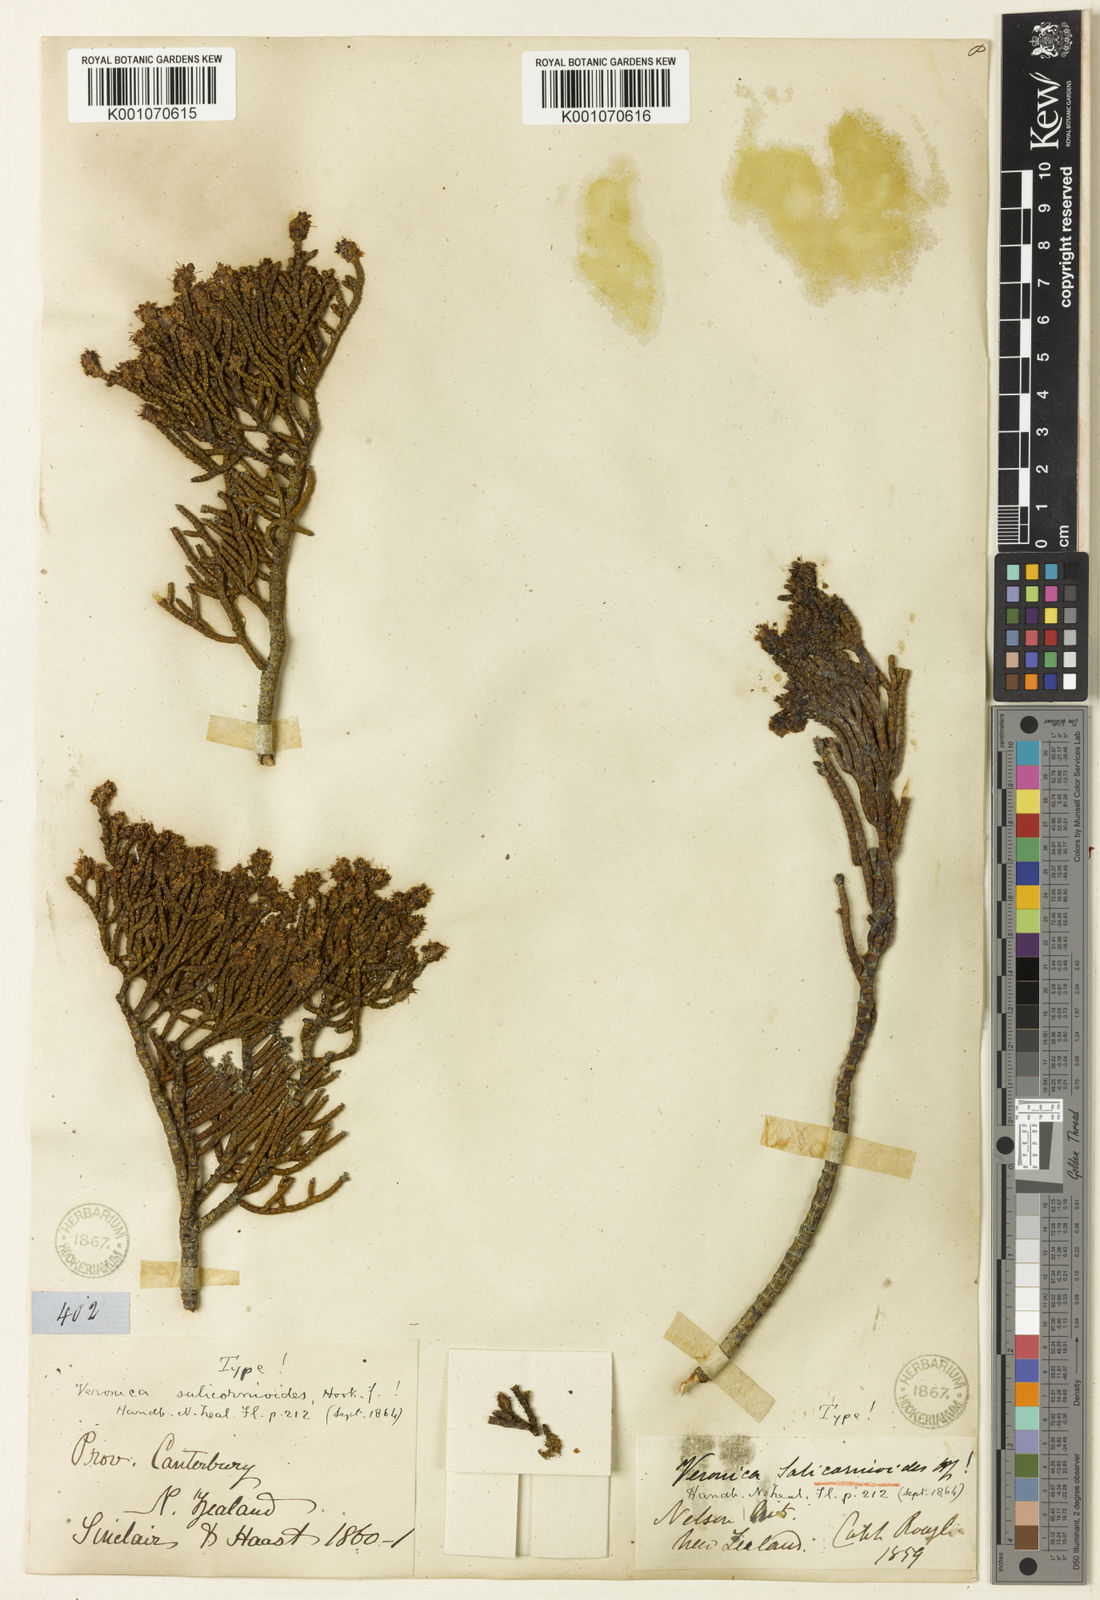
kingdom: Plantae
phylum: Tracheophyta
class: Magnoliopsida
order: Lamiales
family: Plantaginaceae
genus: Veronica
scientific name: Veronica salicornioides
